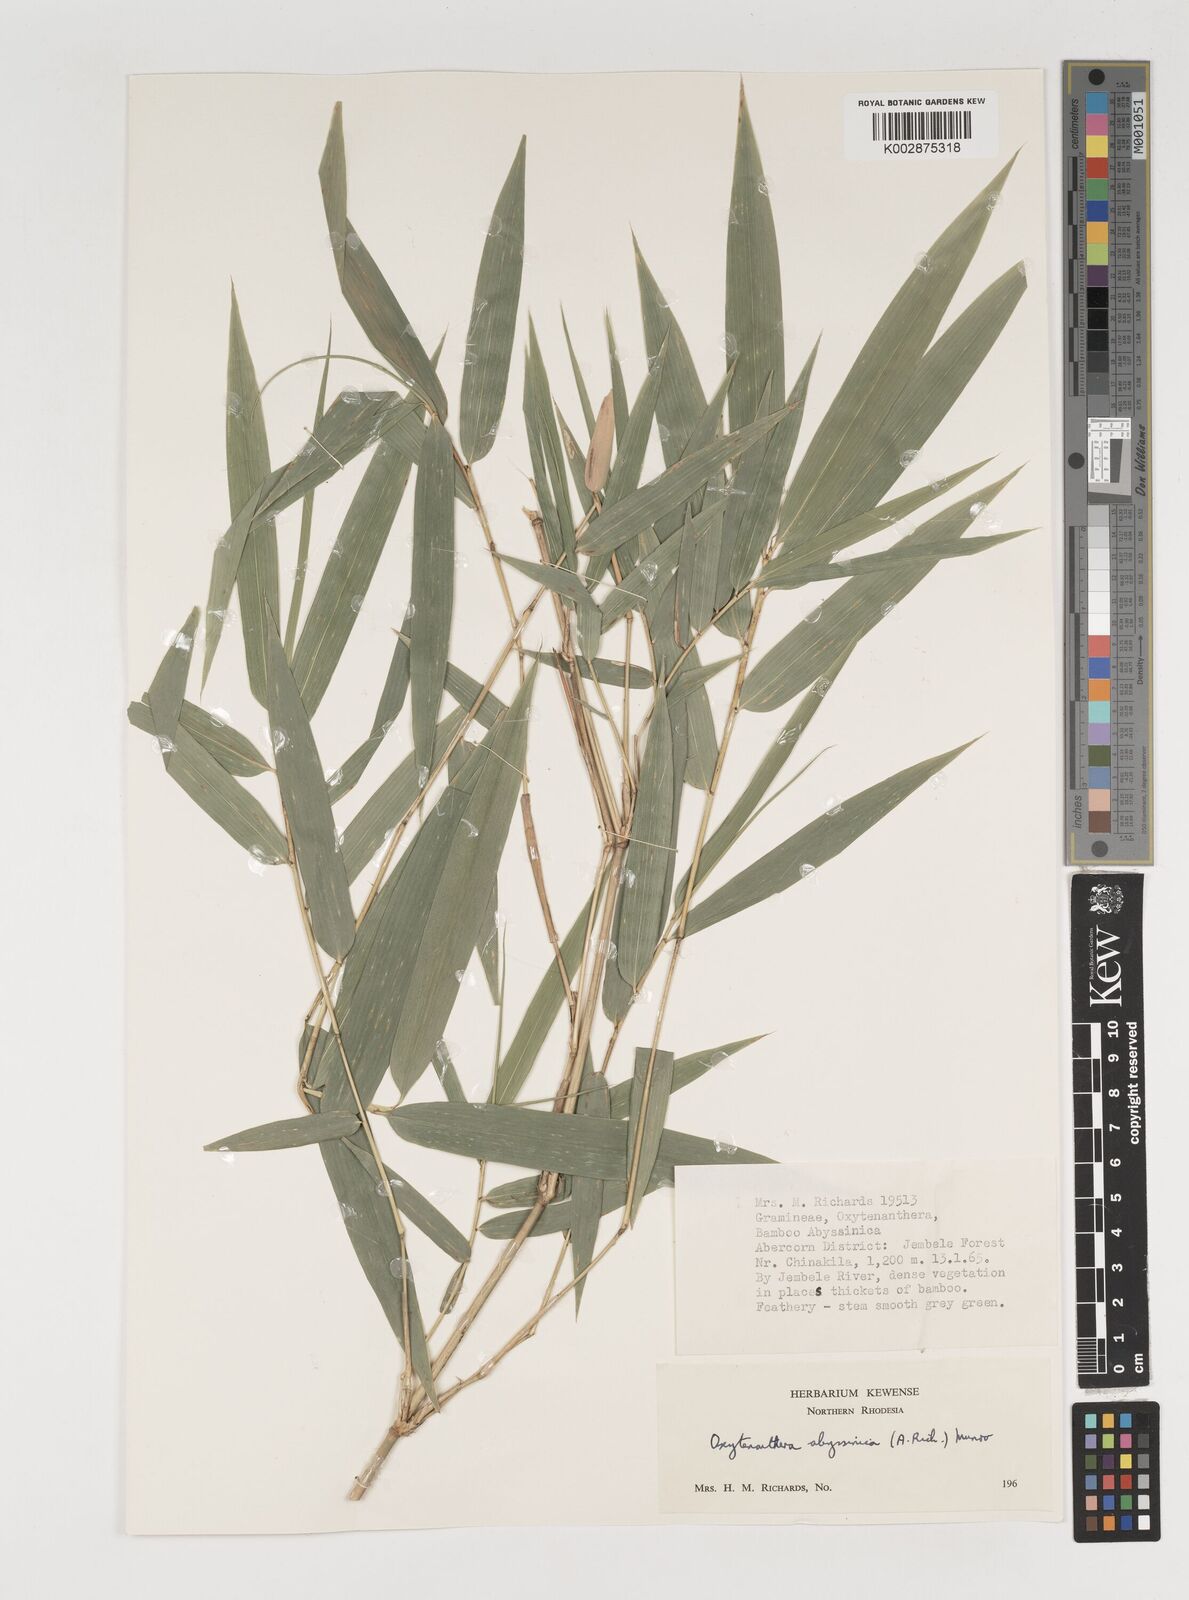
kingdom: Plantae
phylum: Tracheophyta
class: Liliopsida
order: Poales
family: Poaceae
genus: Oxytenanthera
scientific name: Oxytenanthera abyssinica
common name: Wine bamboo
